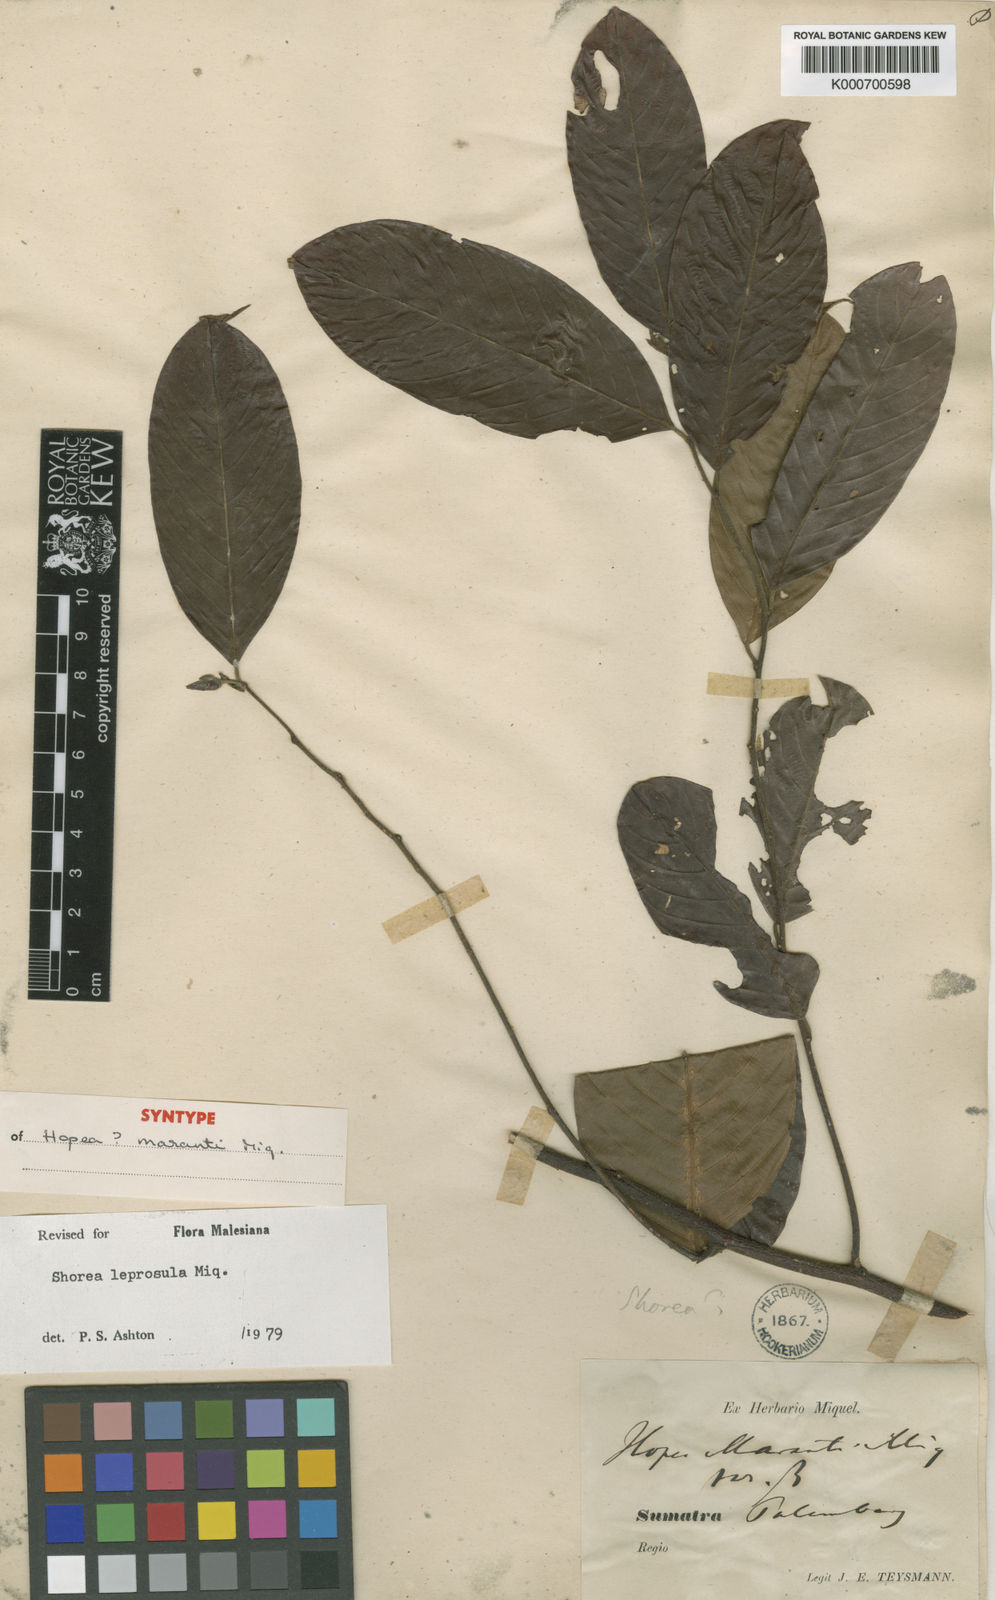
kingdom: Plantae
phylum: Tracheophyta
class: Magnoliopsida
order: Malvales
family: Dipterocarpaceae
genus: Shorea
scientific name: Shorea leprosula
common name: Light red meranti
